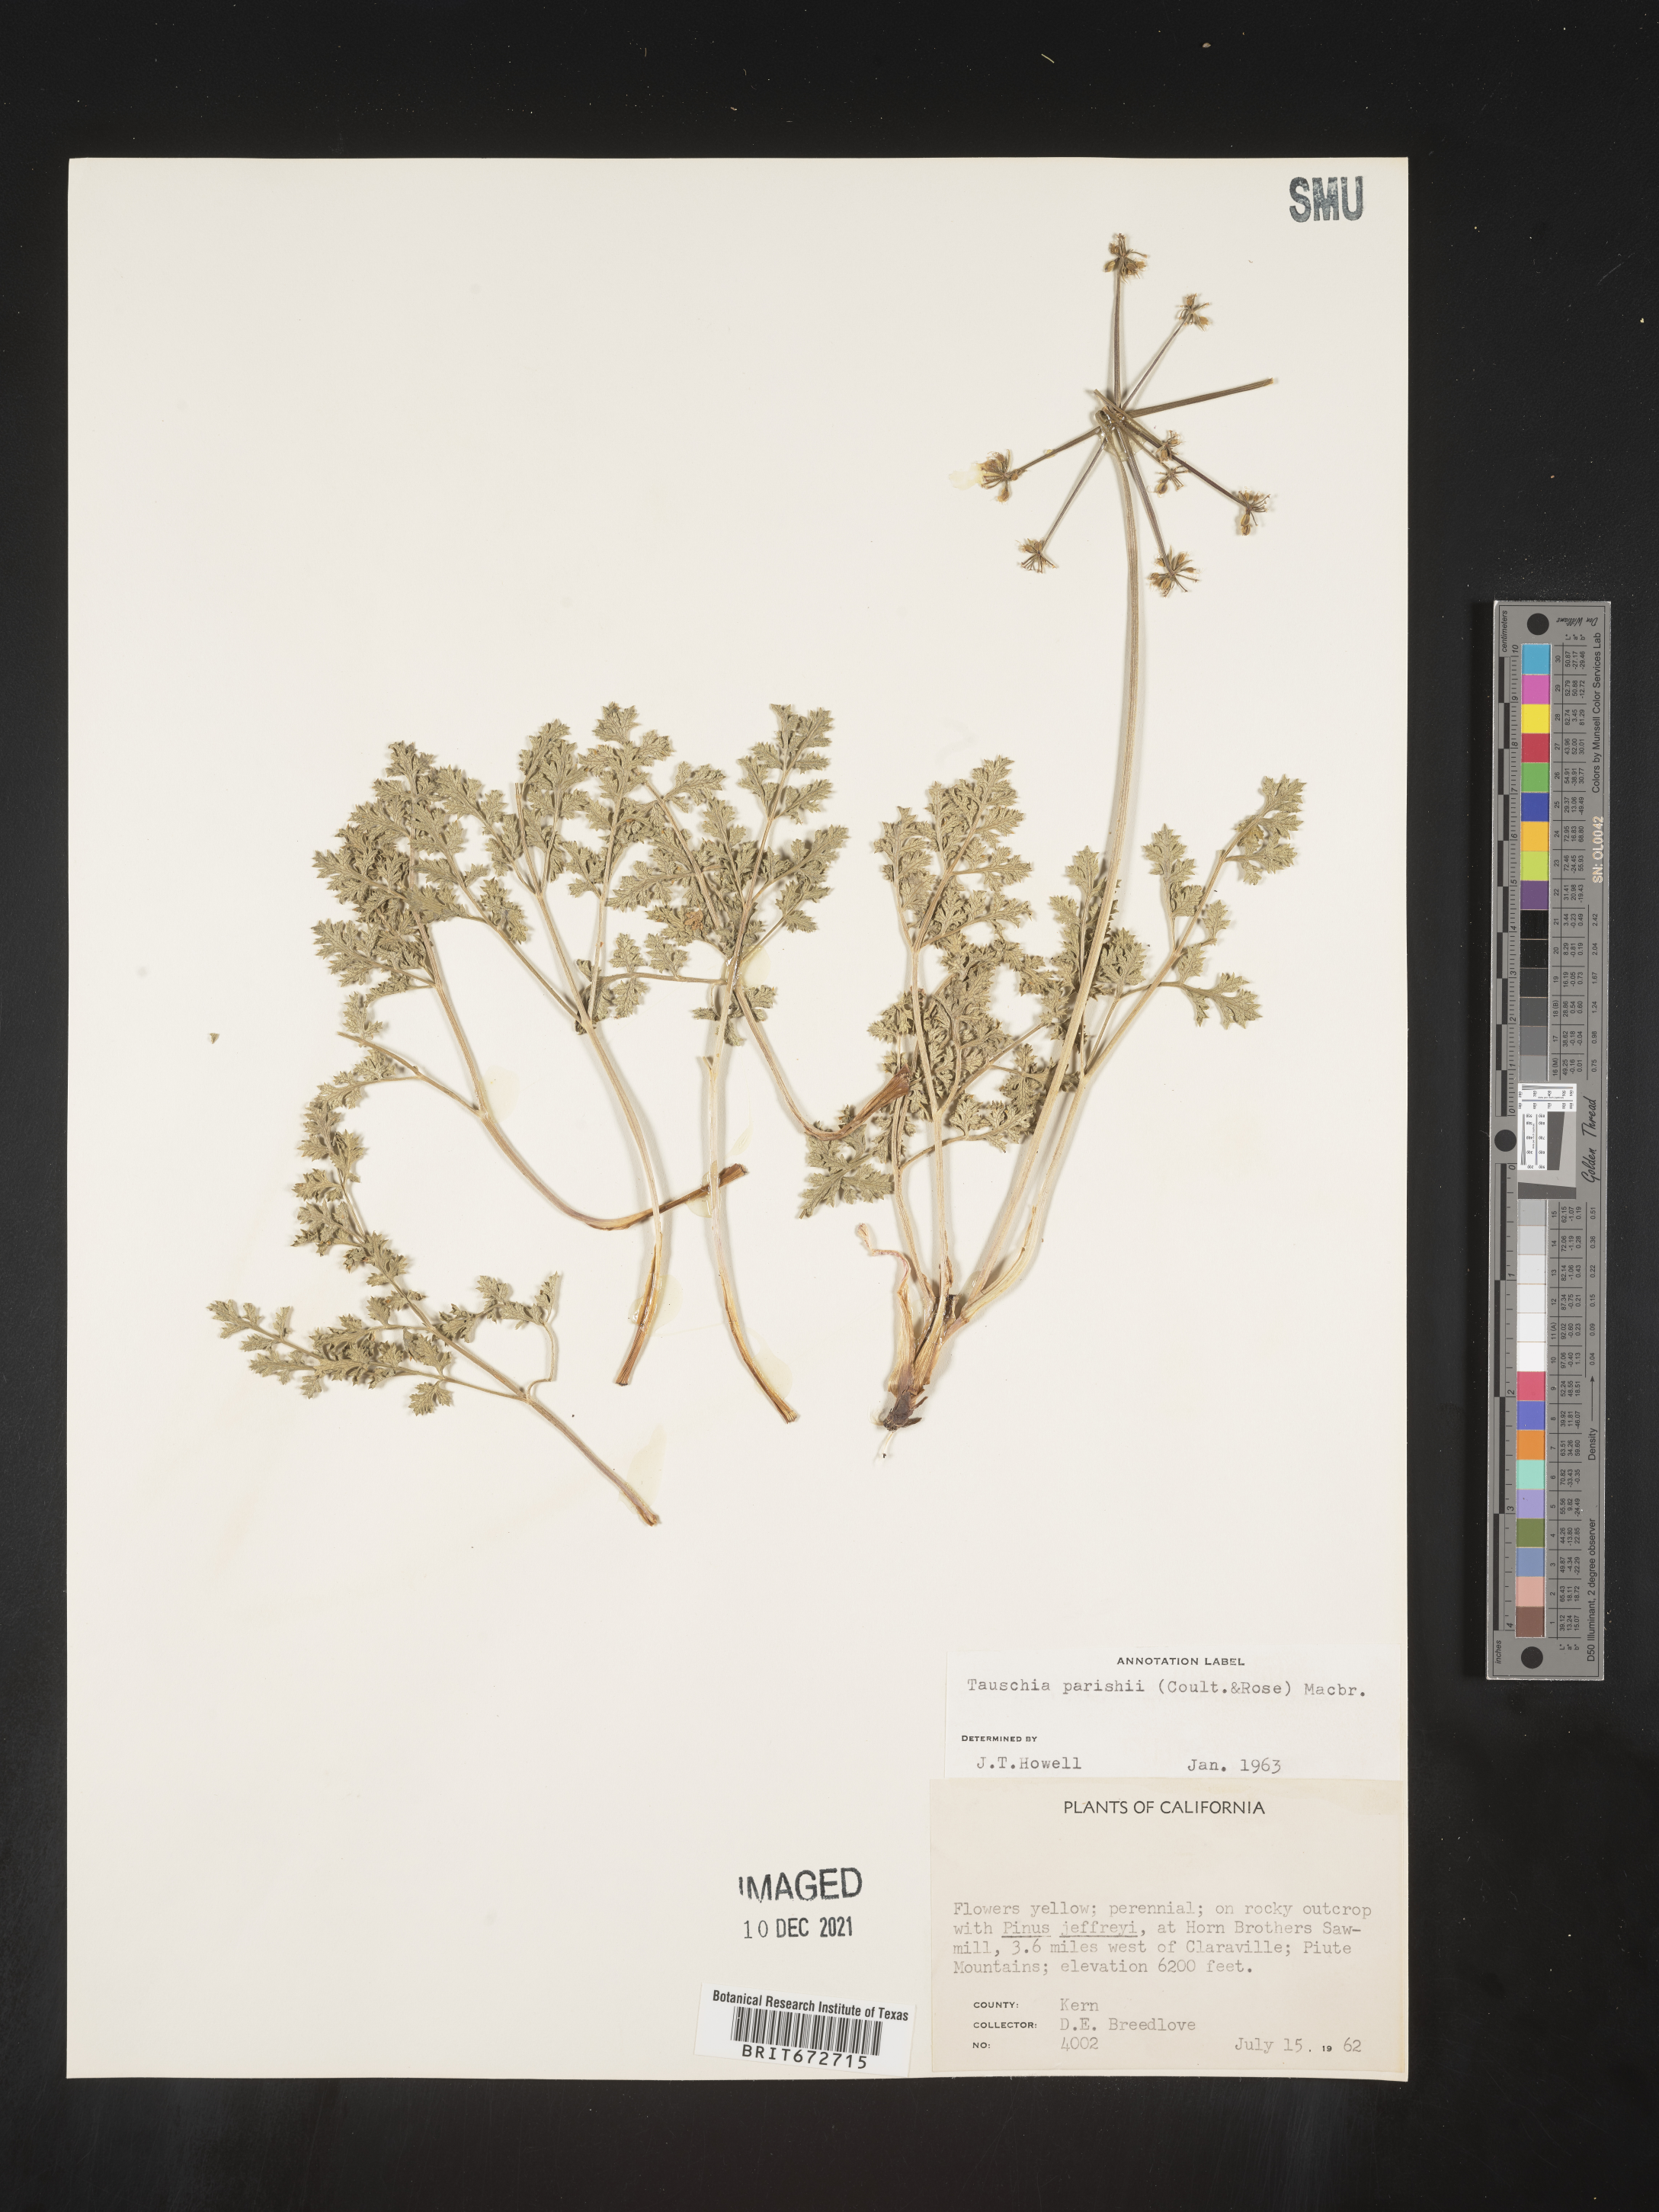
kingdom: Plantae
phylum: Tracheophyta
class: Magnoliopsida
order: Apiales
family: Apiaceae
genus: Tauschia
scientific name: Tauschia
